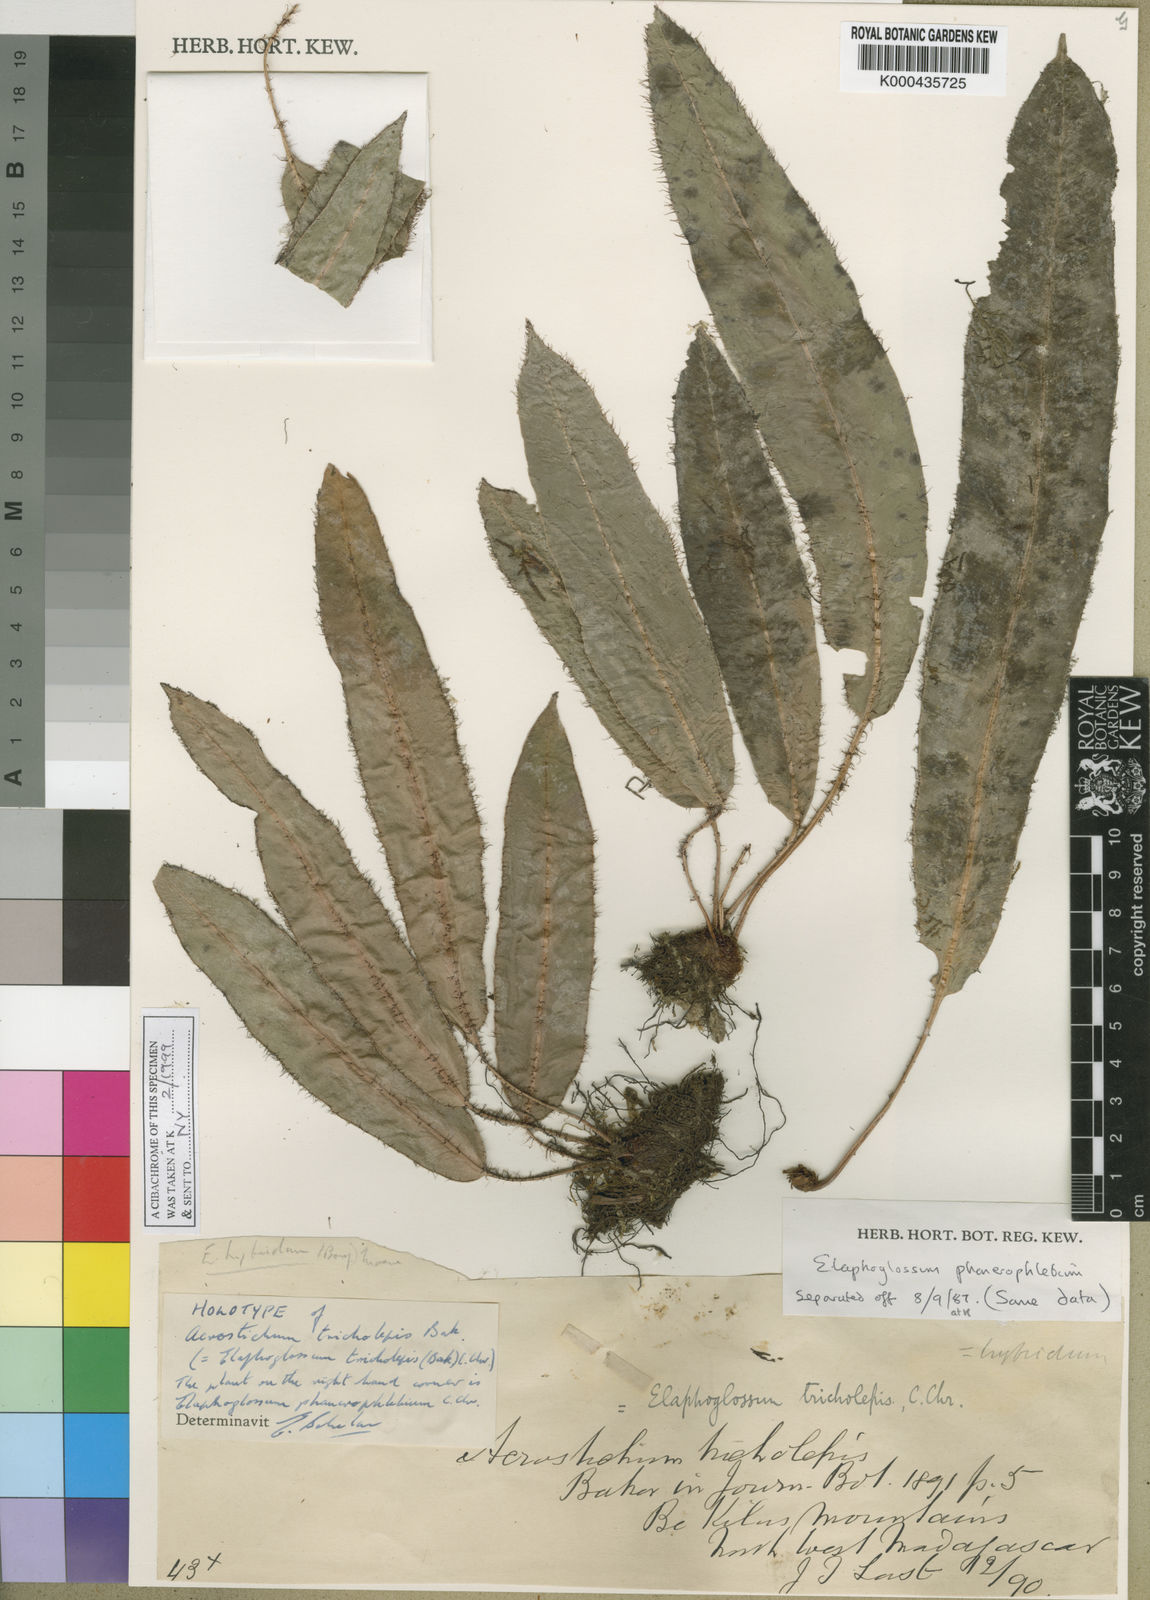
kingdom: Plantae
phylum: Tracheophyta
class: Polypodiopsida
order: Polypodiales
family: Dryopteridaceae
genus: Elaphoglossum
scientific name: Elaphoglossum hybridum
